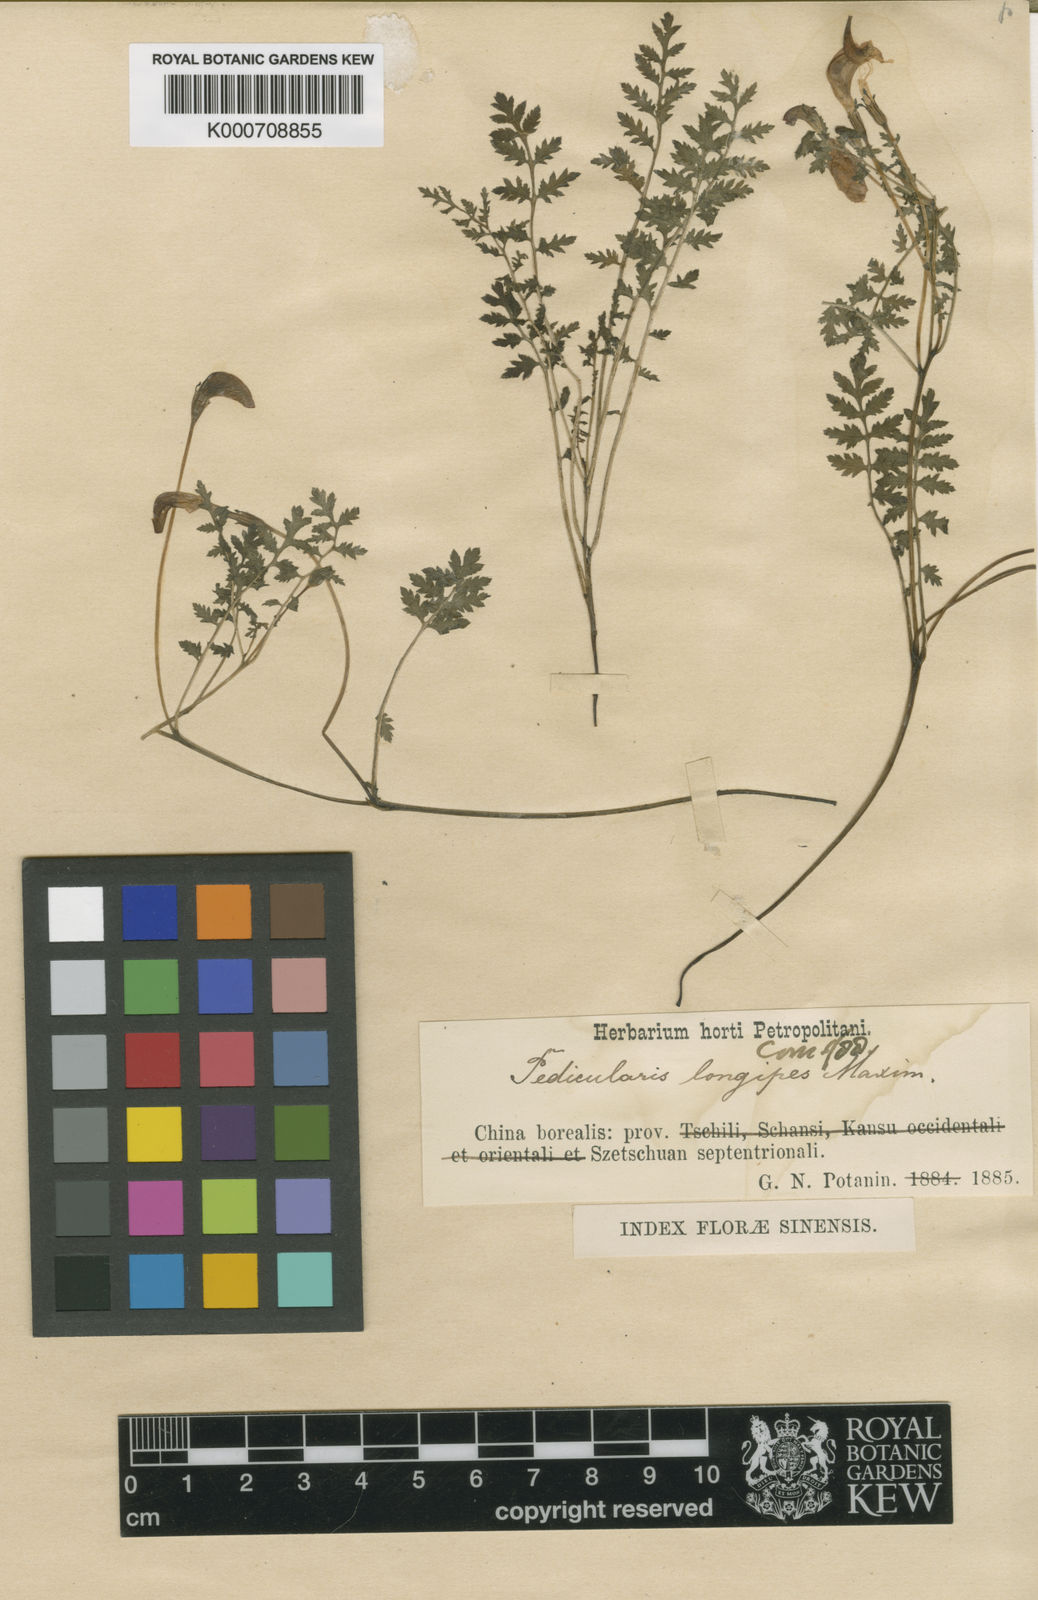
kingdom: Plantae
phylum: Tracheophyta
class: Magnoliopsida
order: Lamiales
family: Orobanchaceae
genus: Pedicularis
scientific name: Pedicularis longipes
